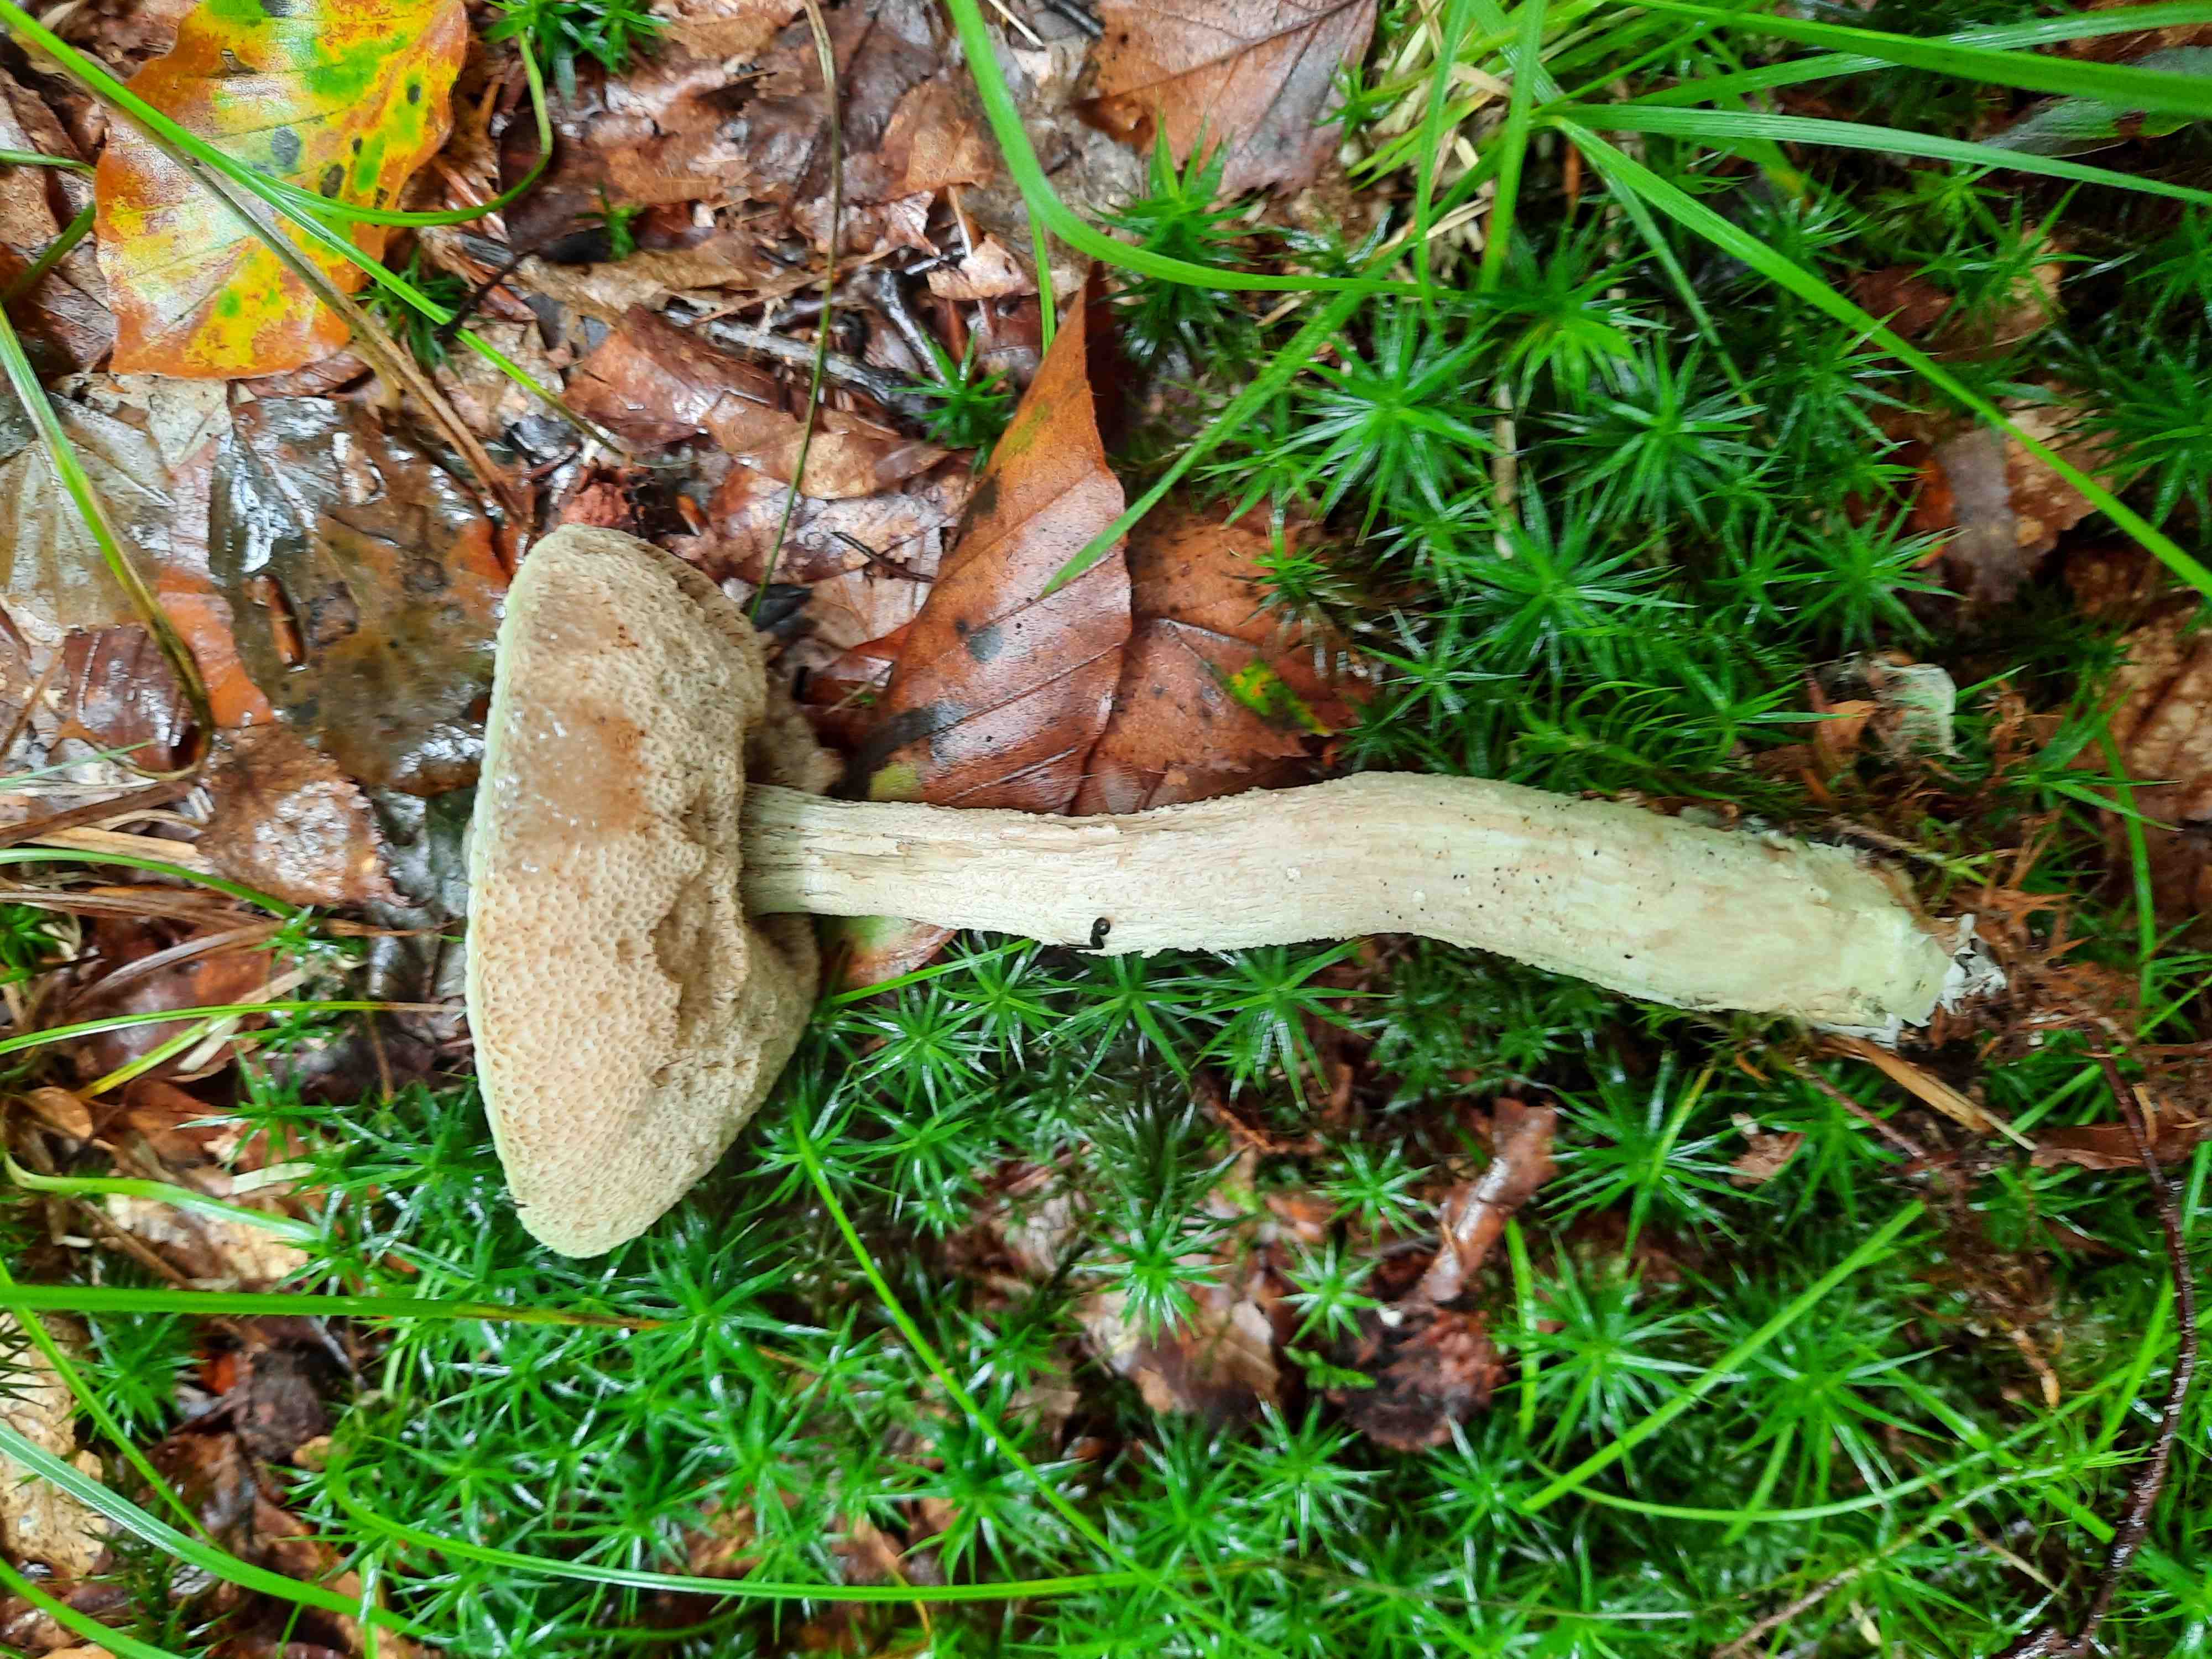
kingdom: Fungi
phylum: Basidiomycota
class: Agaricomycetes
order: Boletales
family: Boletaceae
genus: Leccinum
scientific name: Leccinum
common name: skælrørhat
